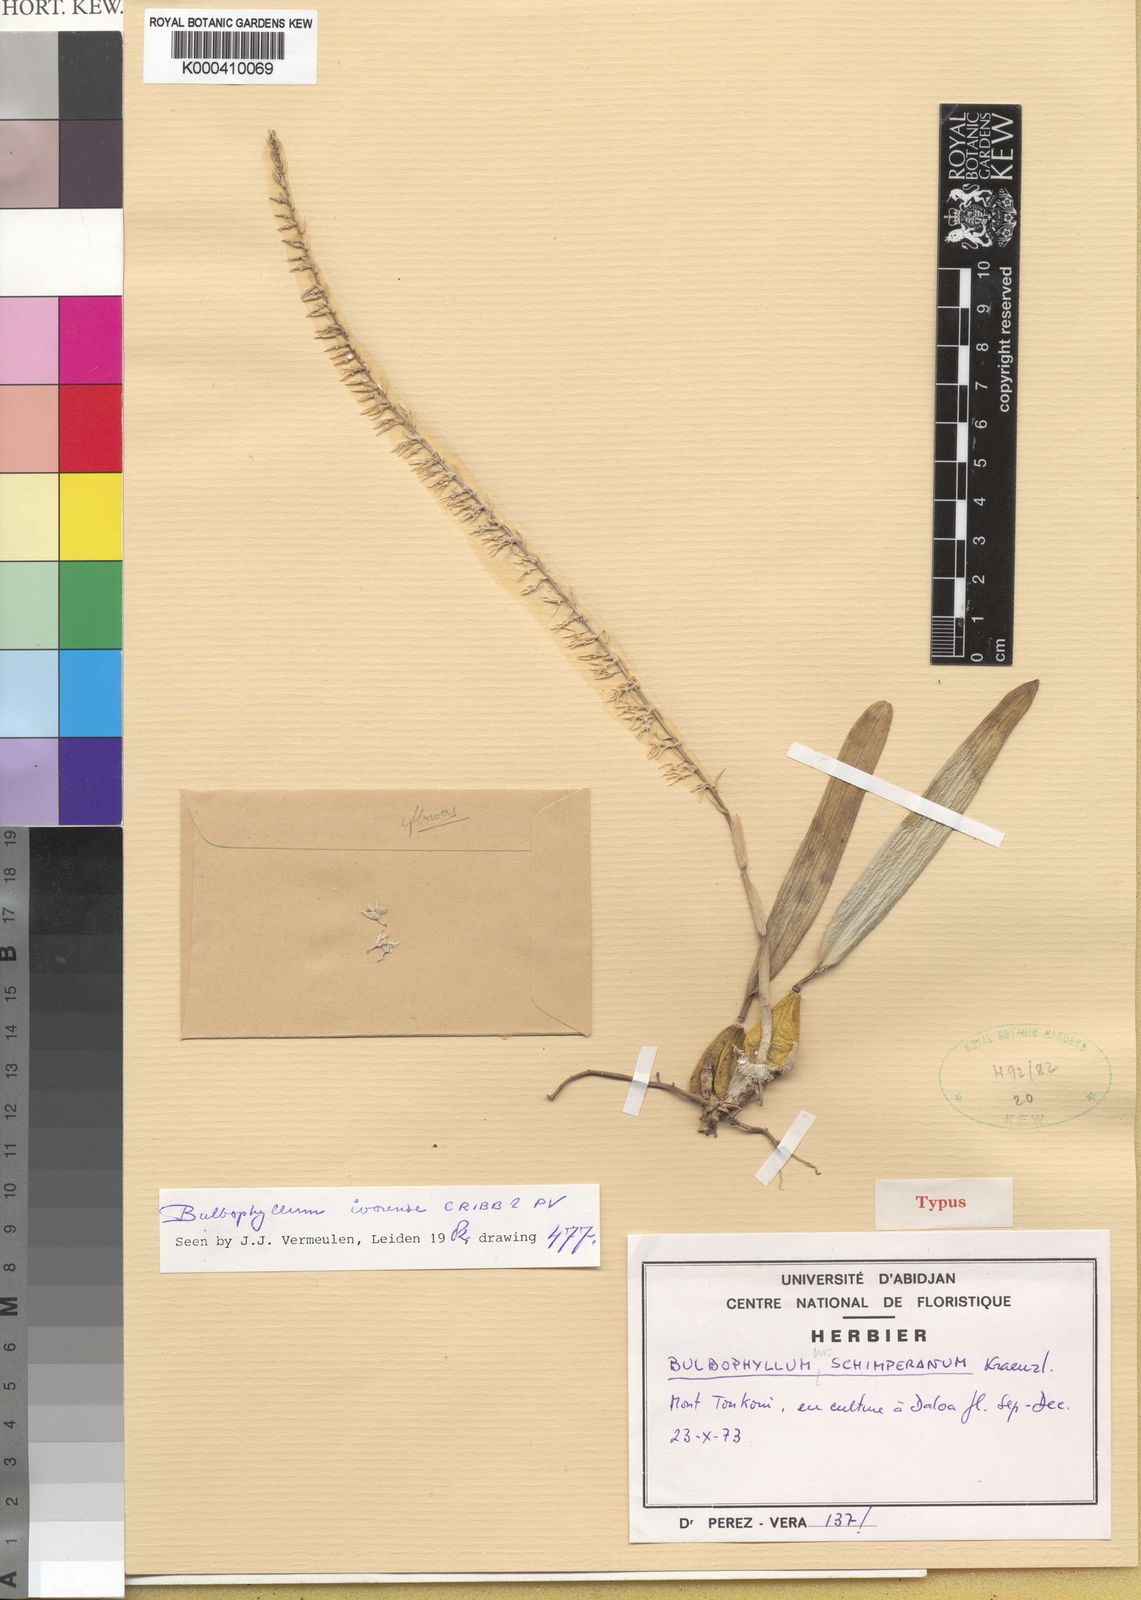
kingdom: Plantae
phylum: Tracheophyta
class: Liliopsida
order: Asparagales
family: Orchidaceae
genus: Bulbophyllum
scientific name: Bulbophyllum ivorense
